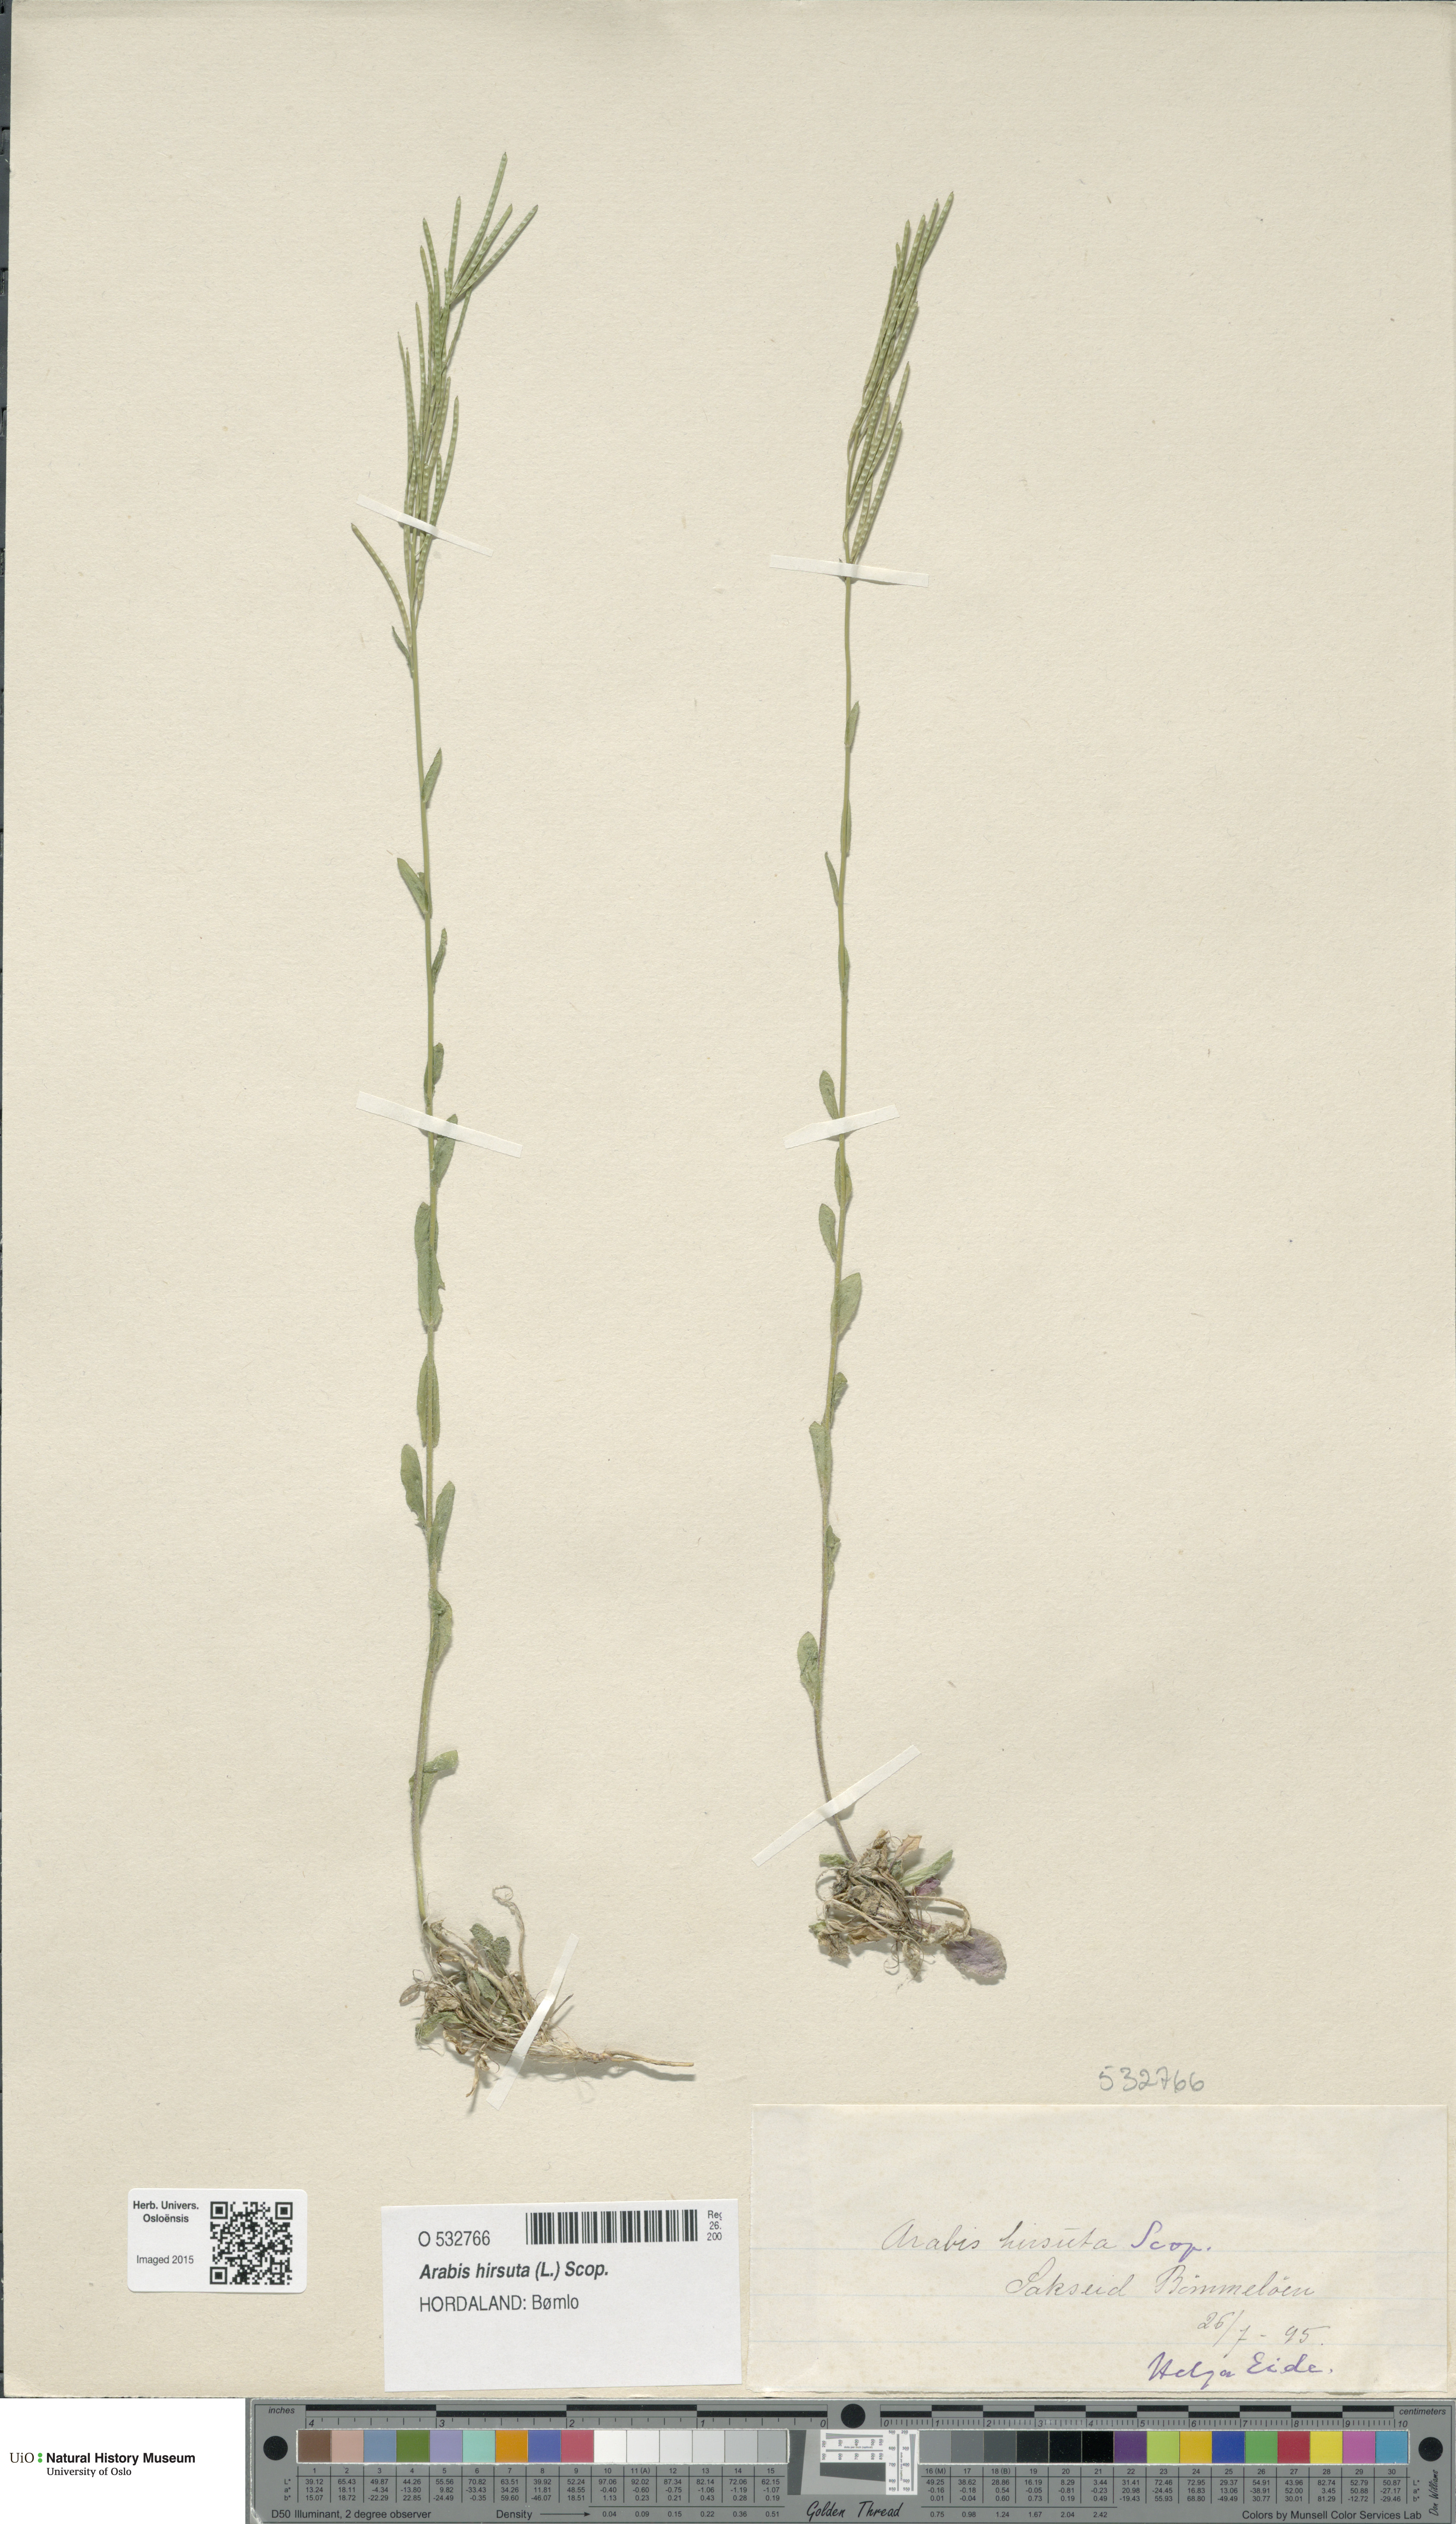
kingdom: Plantae
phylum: Tracheophyta
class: Magnoliopsida
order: Brassicales
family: Brassicaceae
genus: Arabis
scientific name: Arabis hirsuta
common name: Hairy rock-cress
